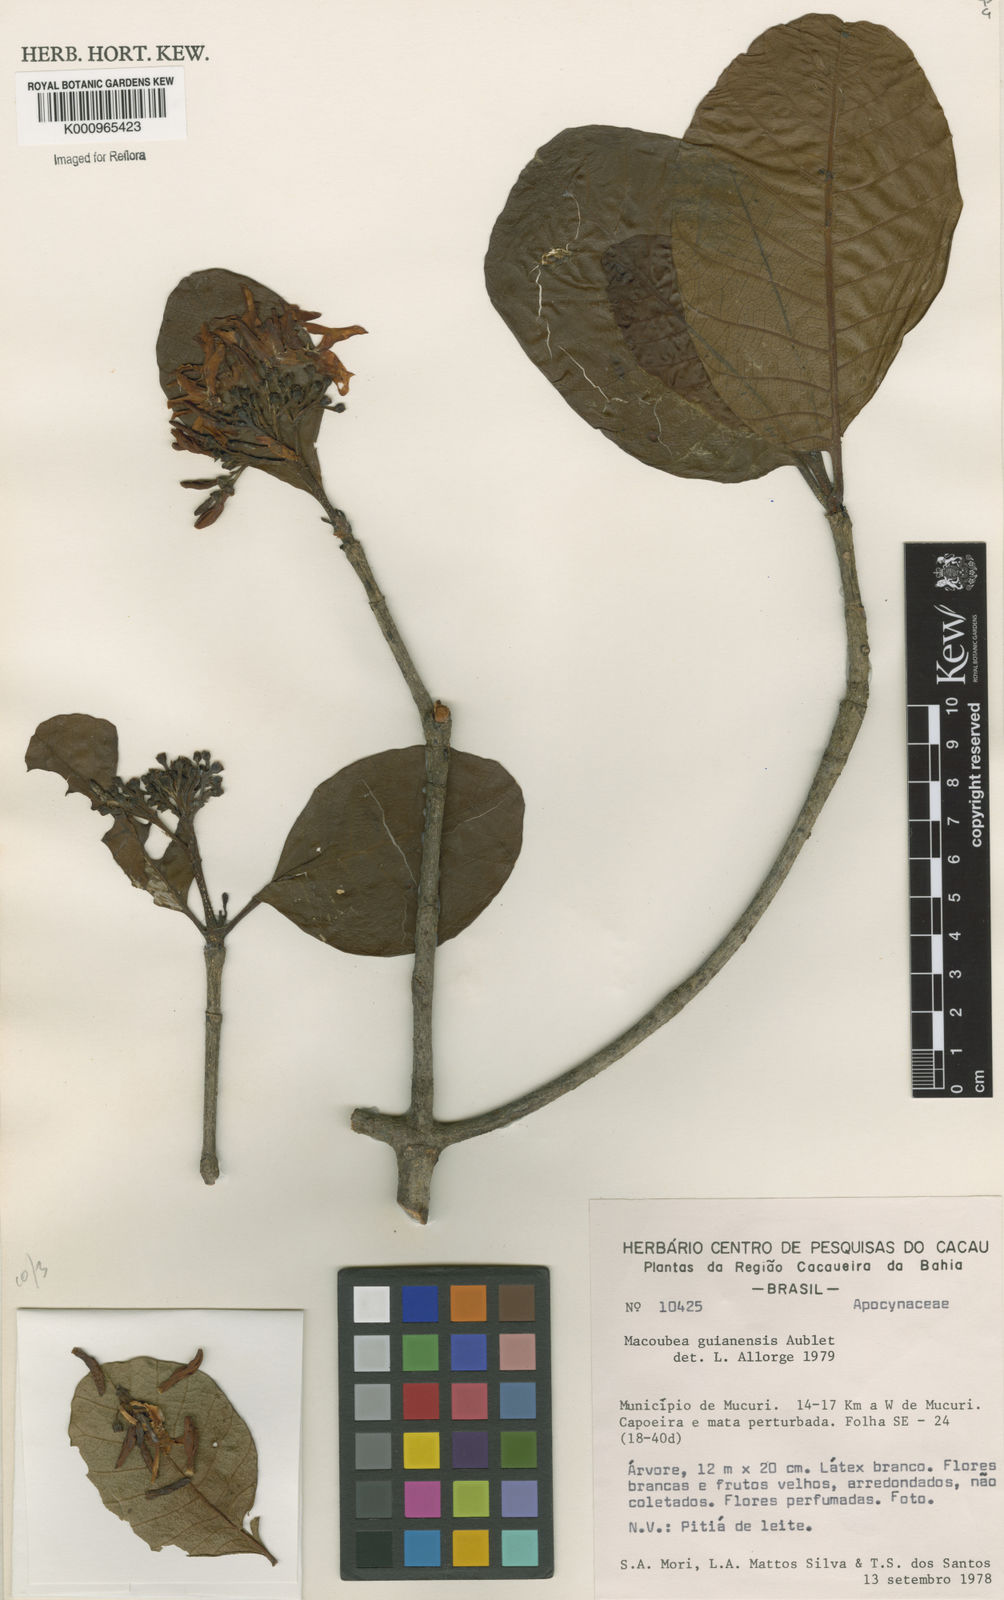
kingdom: Plantae
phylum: Tracheophyta
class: Magnoliopsida
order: Gentianales
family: Apocynaceae
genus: Macoubea
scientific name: Macoubea guianensis
